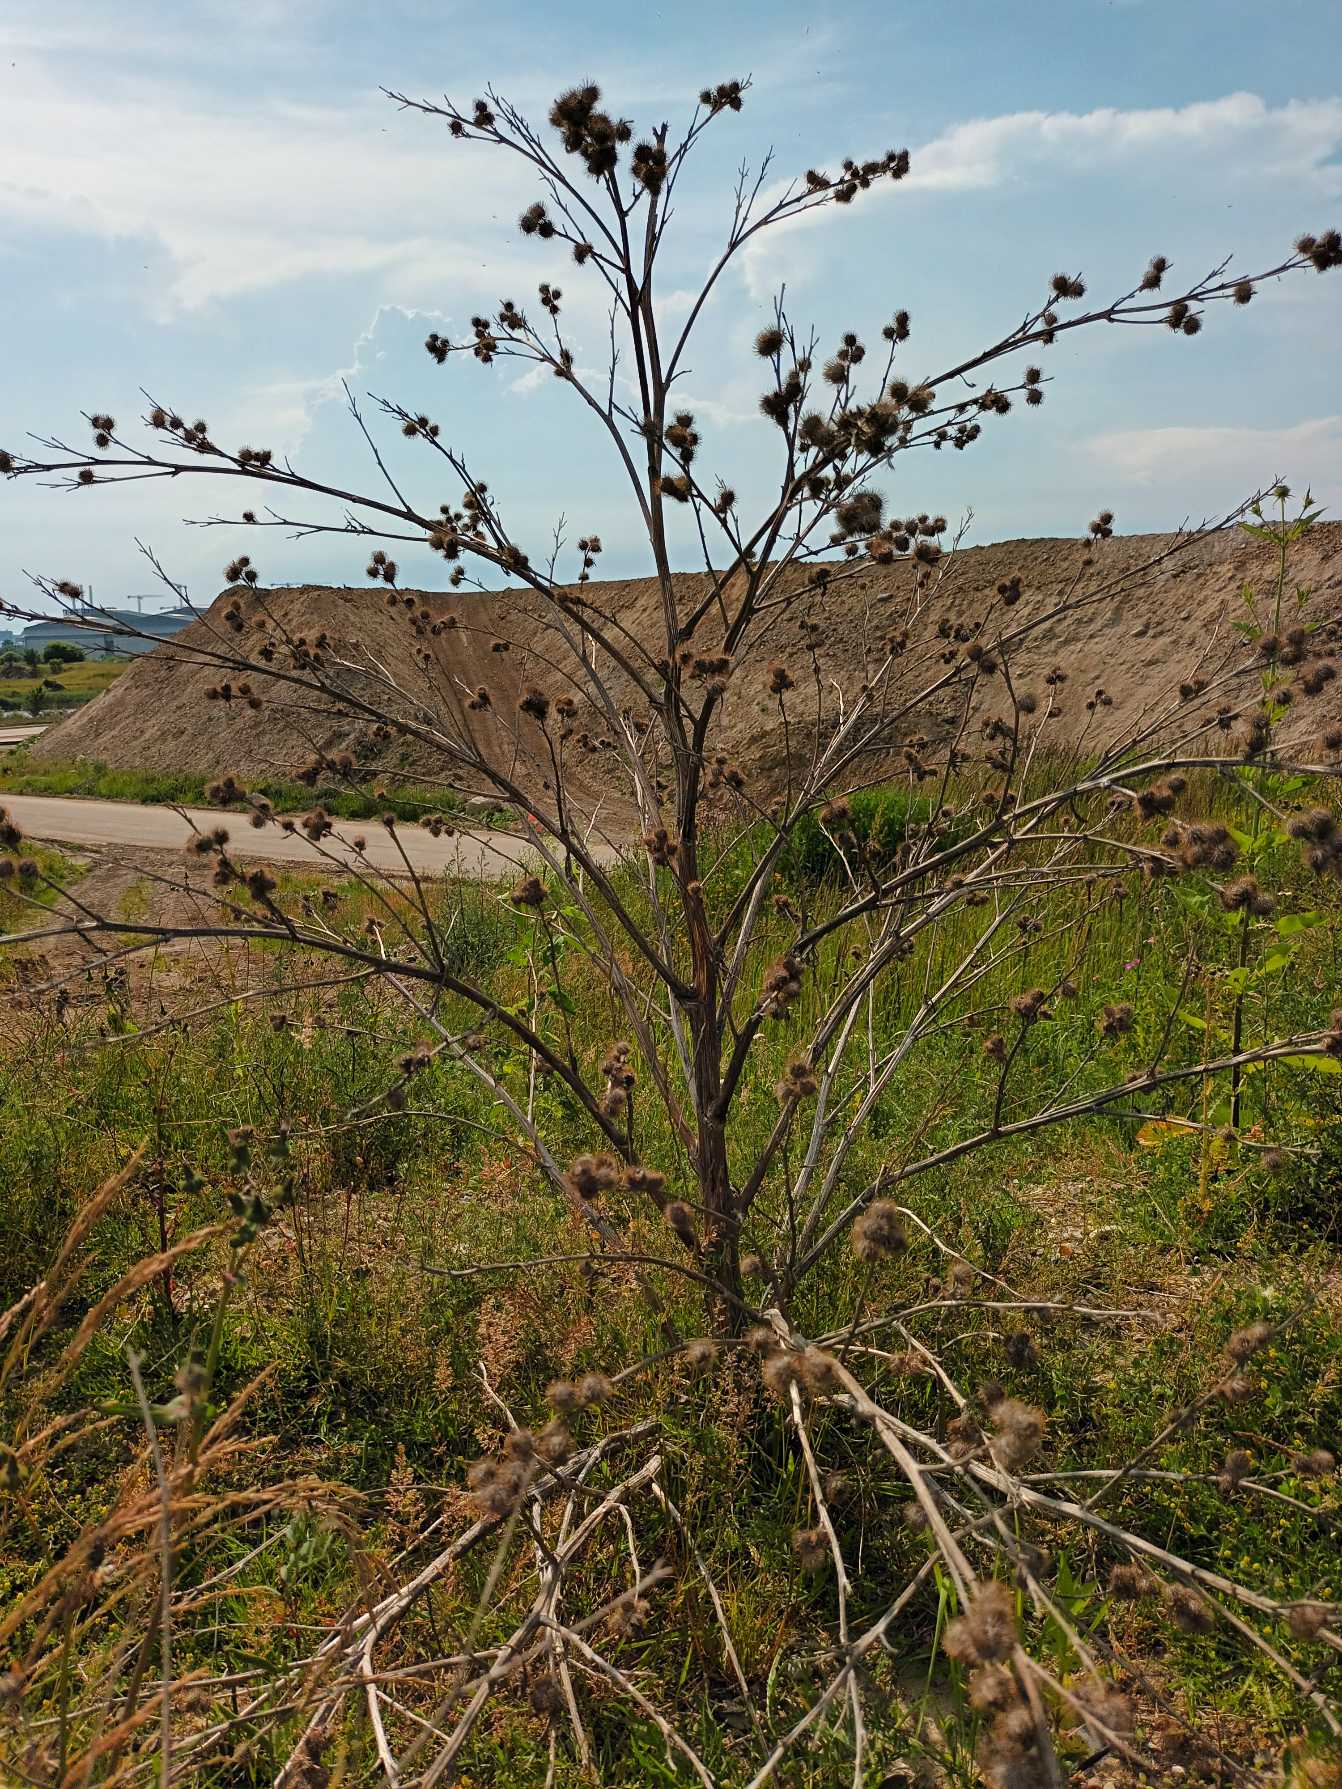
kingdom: Plantae
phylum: Tracheophyta
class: Magnoliopsida
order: Asterales
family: Asteraceae
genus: Arctium
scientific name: Arctium minus
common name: Liden burre
